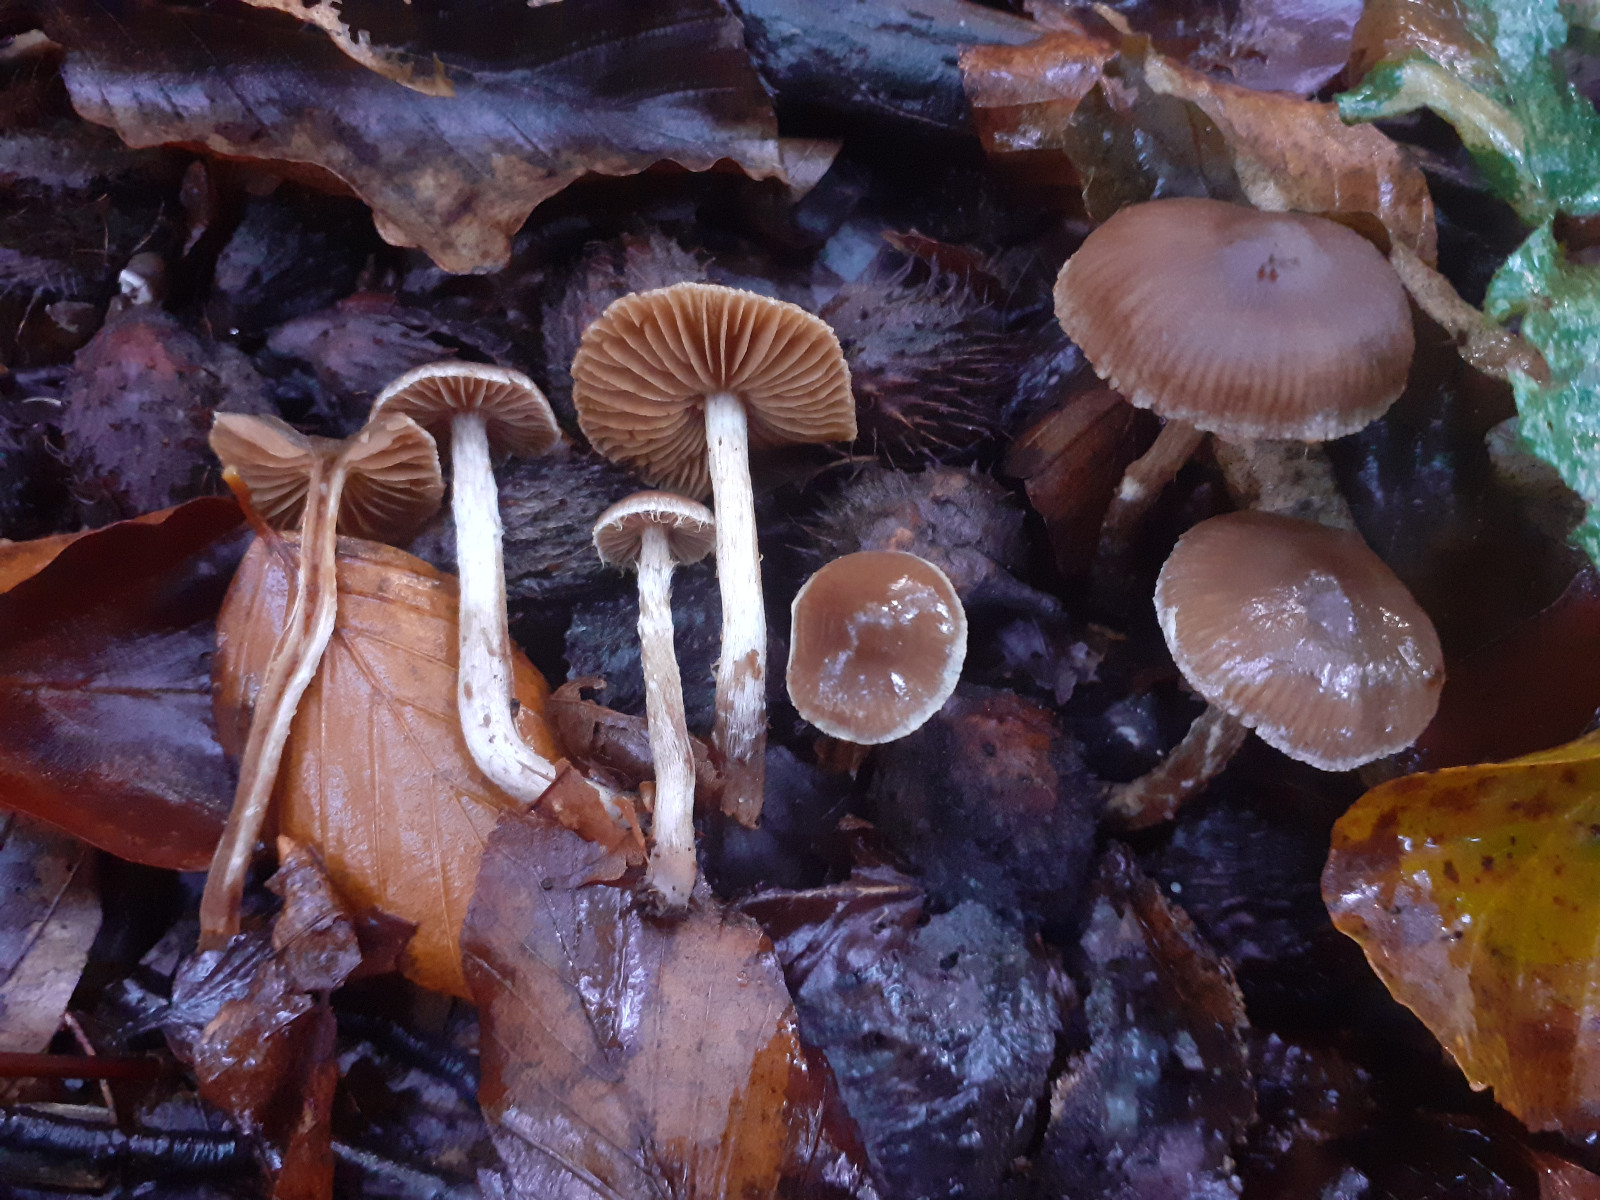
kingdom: Fungi
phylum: Basidiomycota
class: Agaricomycetes
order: Agaricales
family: Cortinariaceae
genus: Cortinarius
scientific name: Cortinarius pilatii
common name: Piláts slørhat
